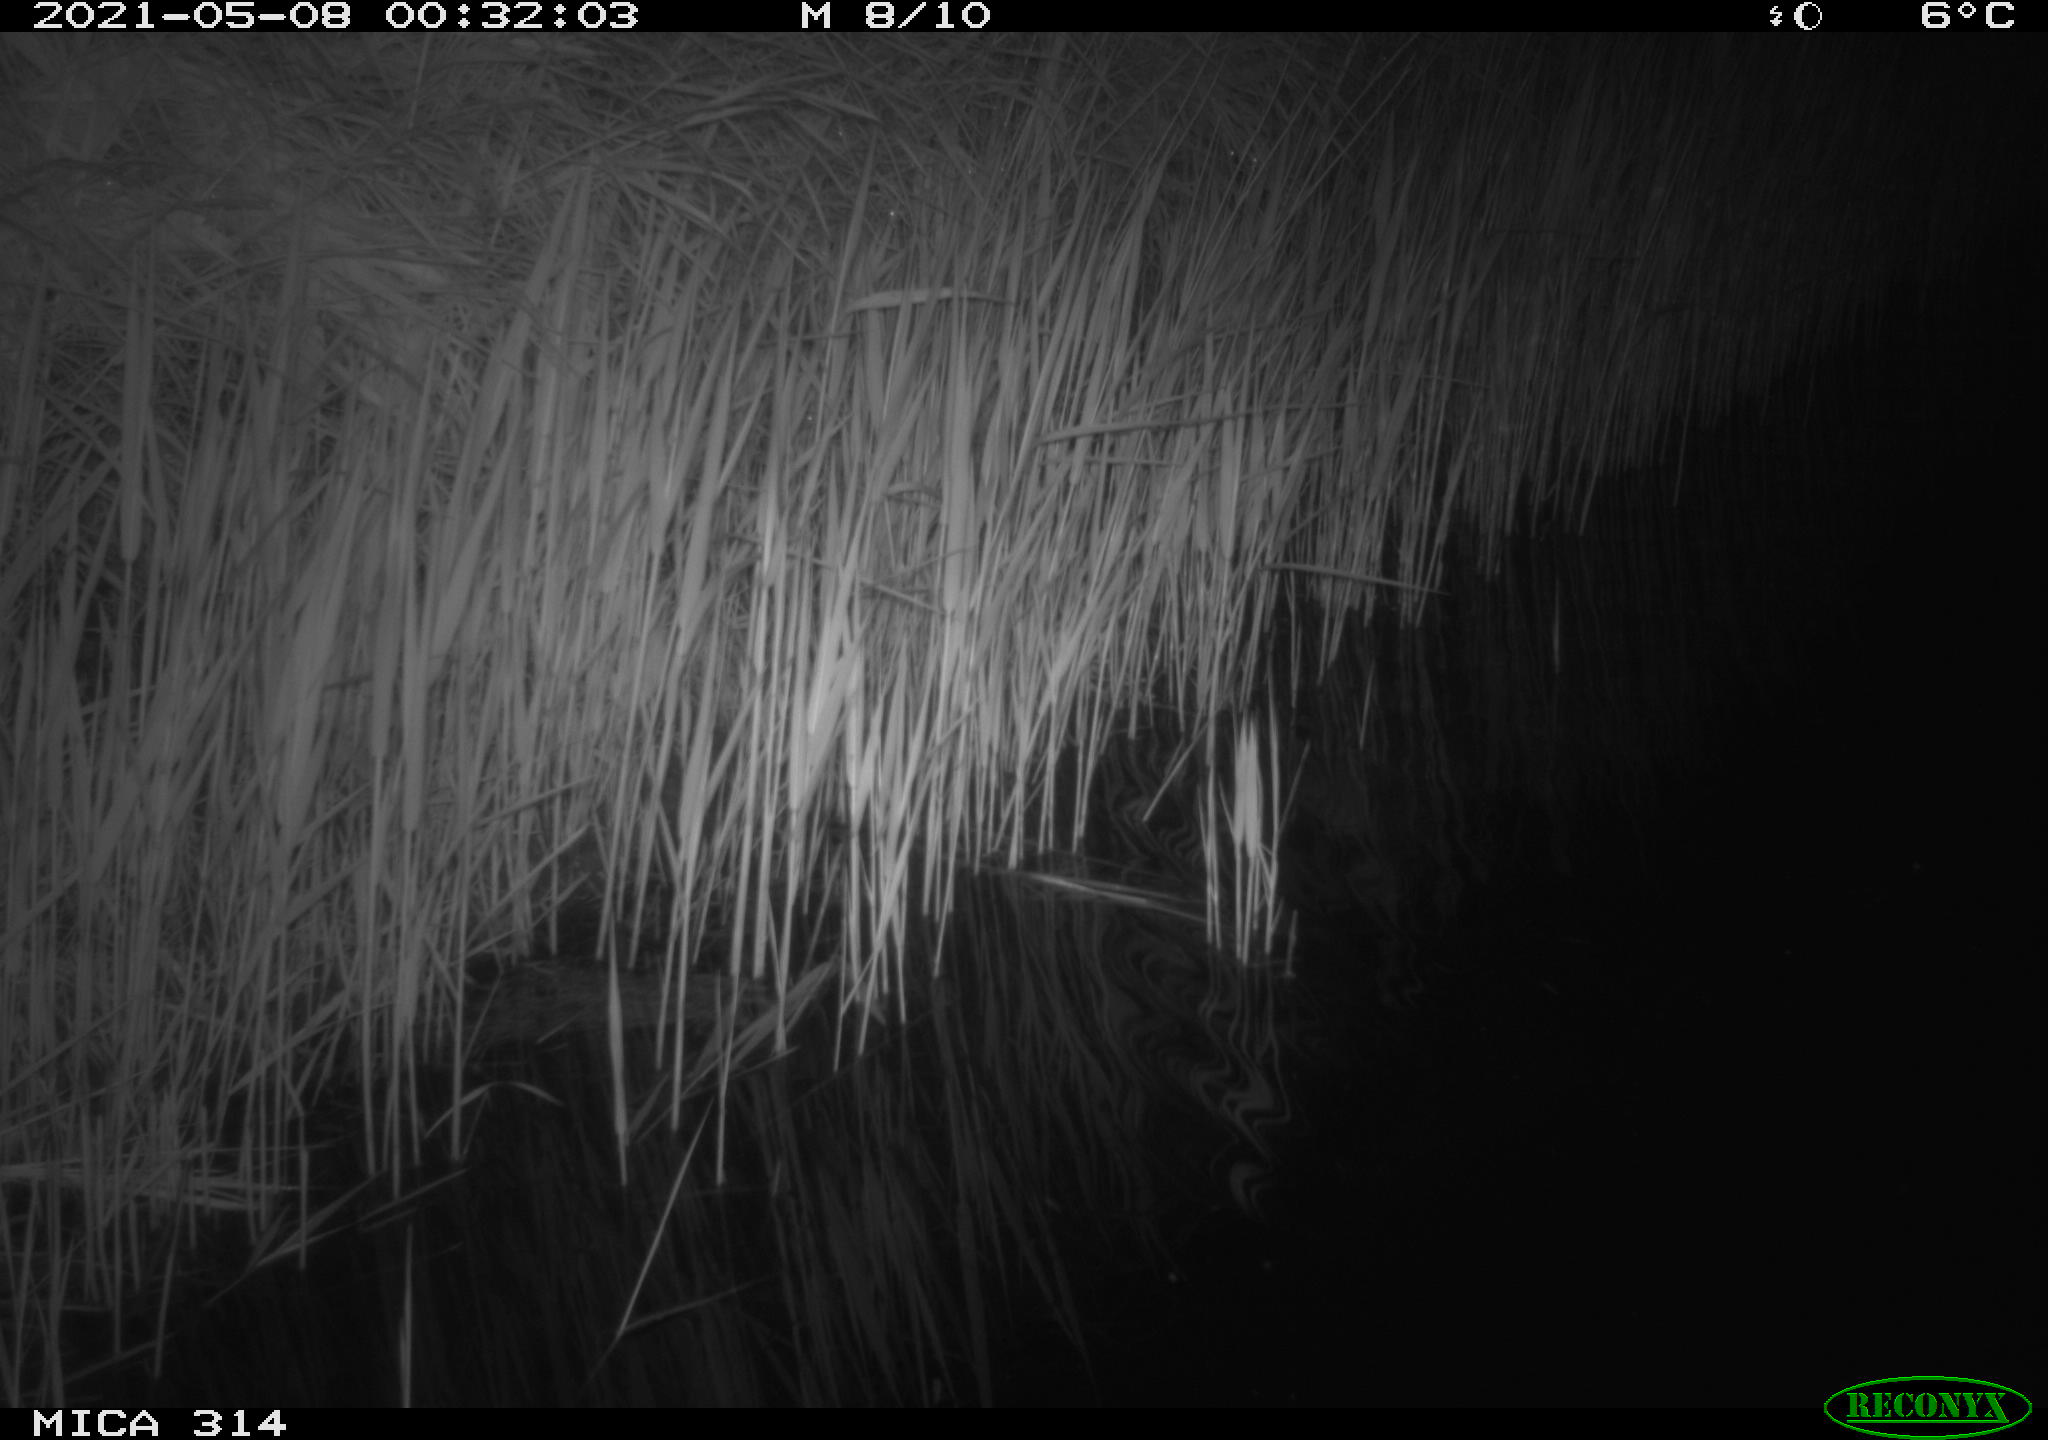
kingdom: Animalia
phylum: Chordata
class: Aves
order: Anseriformes
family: Anatidae
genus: Anas
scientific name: Anas platyrhynchos
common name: Mallard
